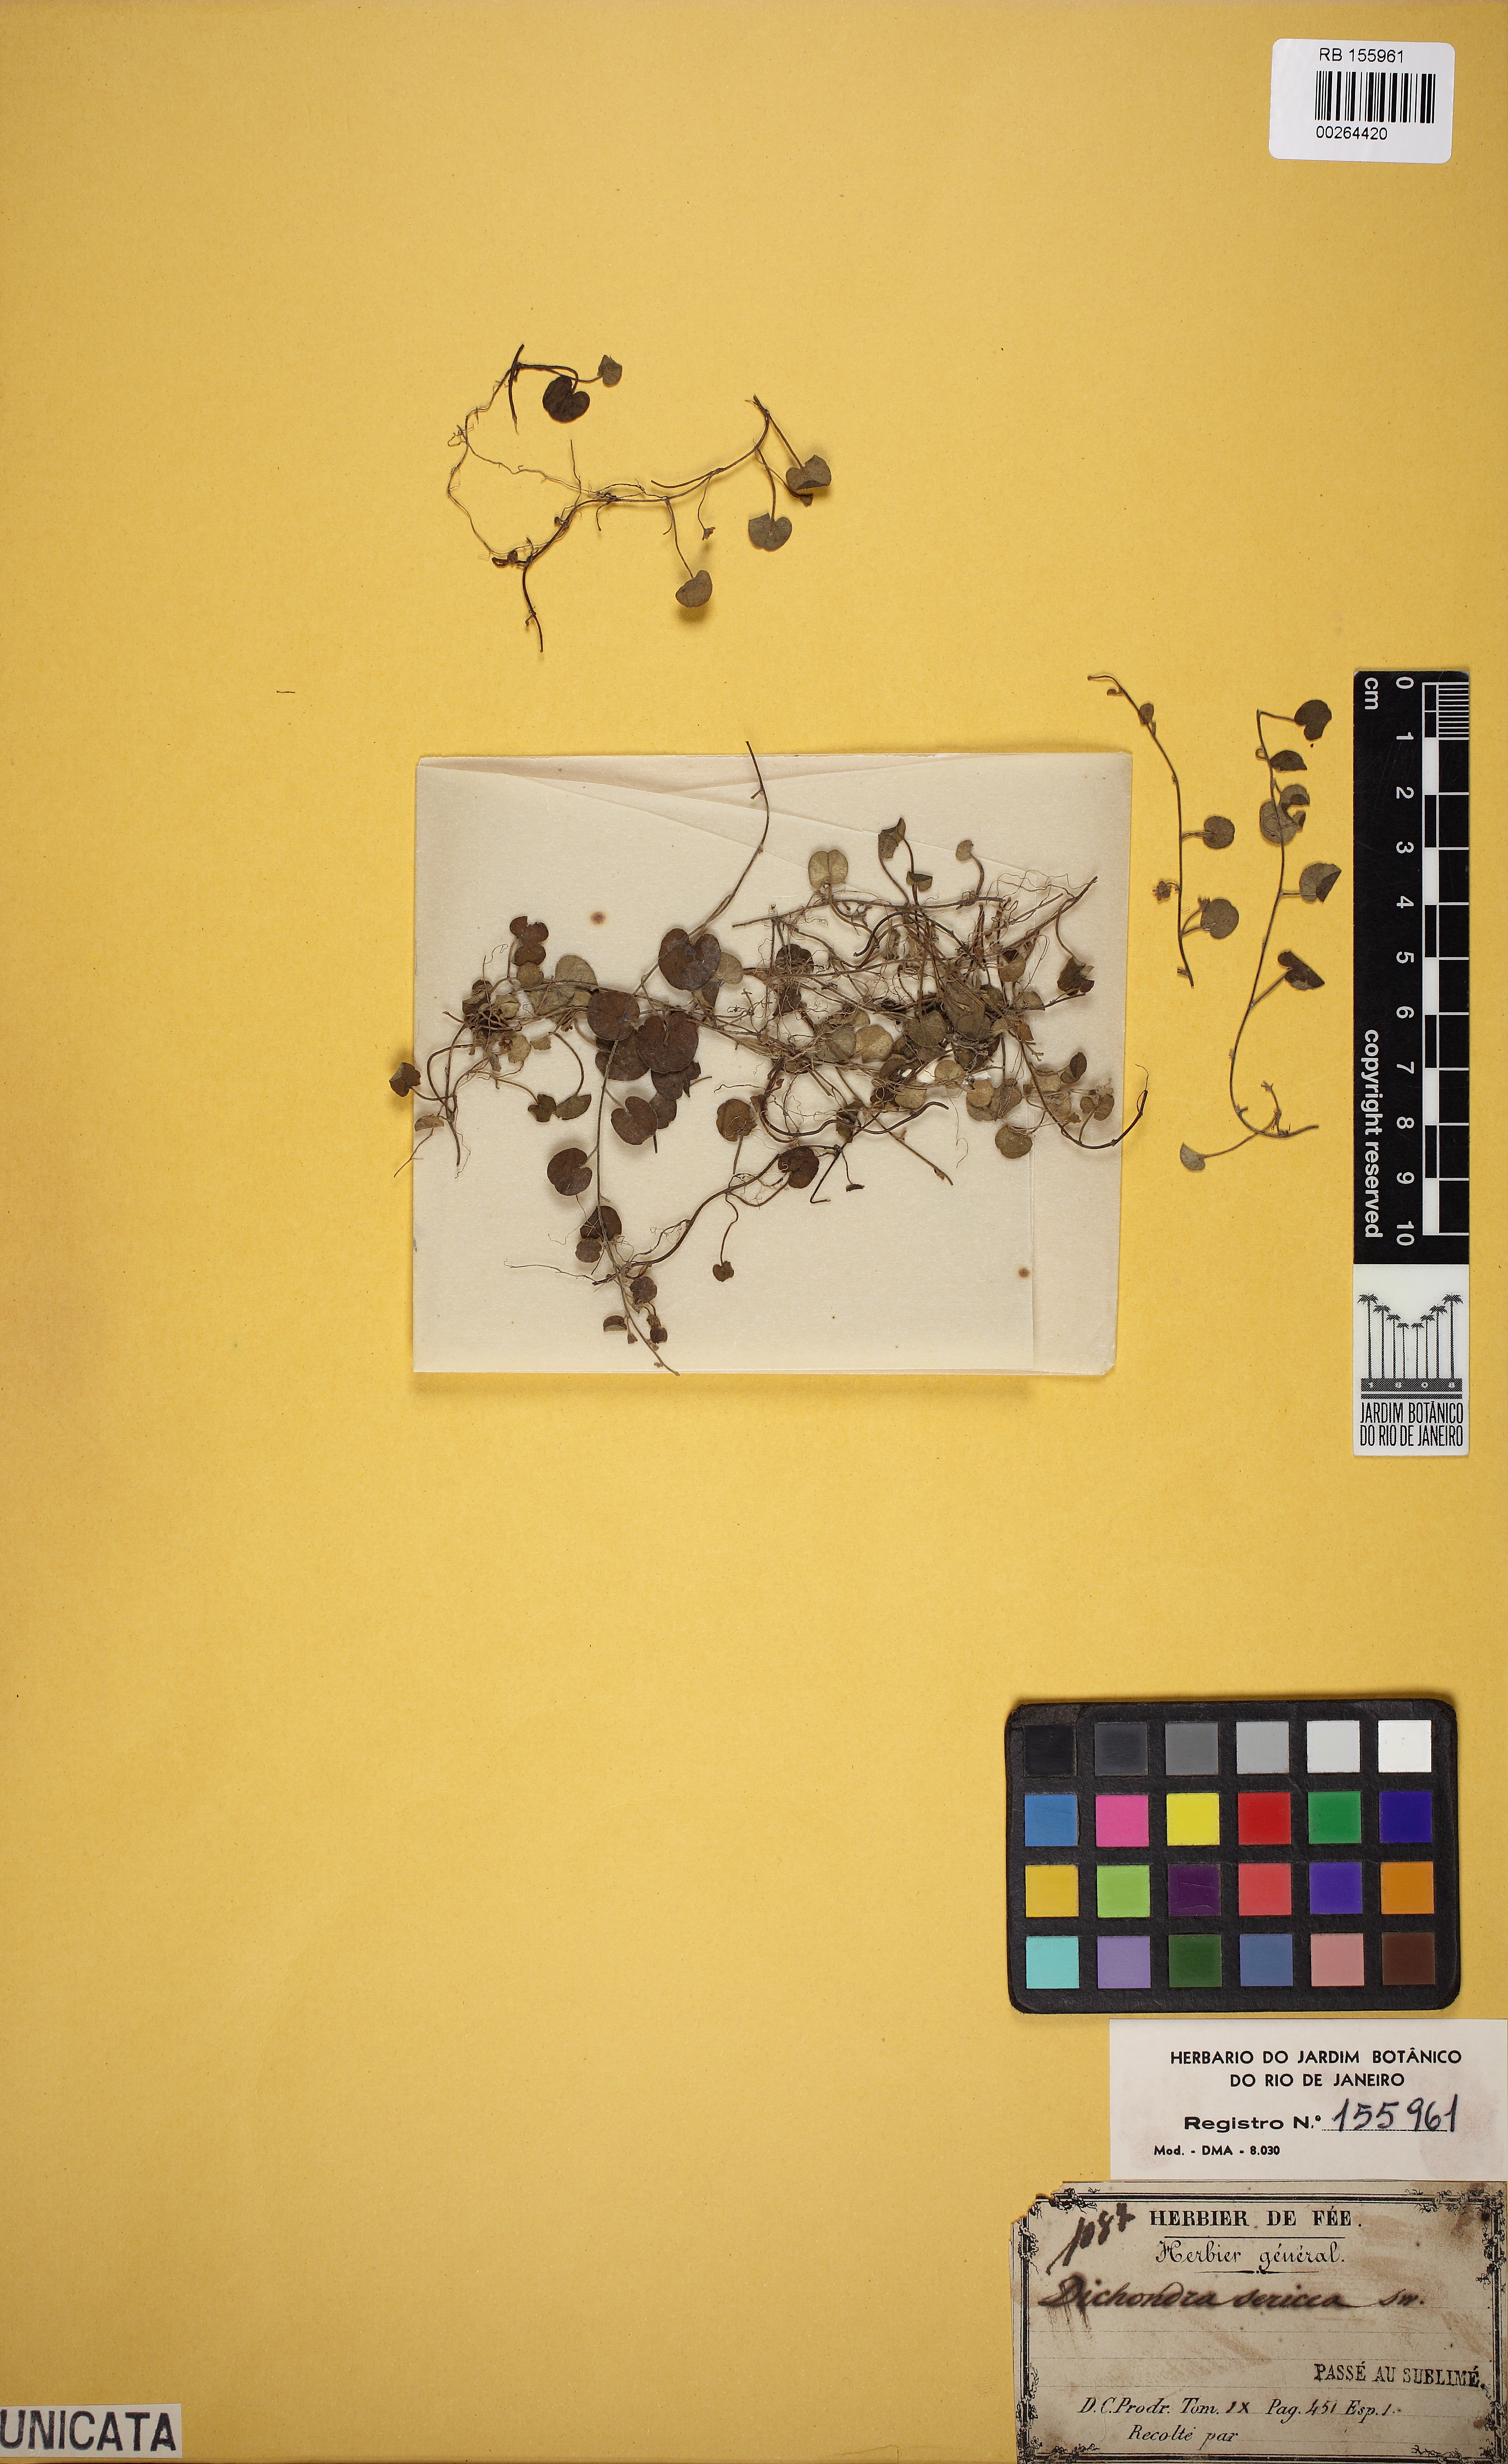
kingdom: Plantae
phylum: Tracheophyta
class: Magnoliopsida
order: Solanales
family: Convolvulaceae
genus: Dichondra
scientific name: Dichondra sericea
